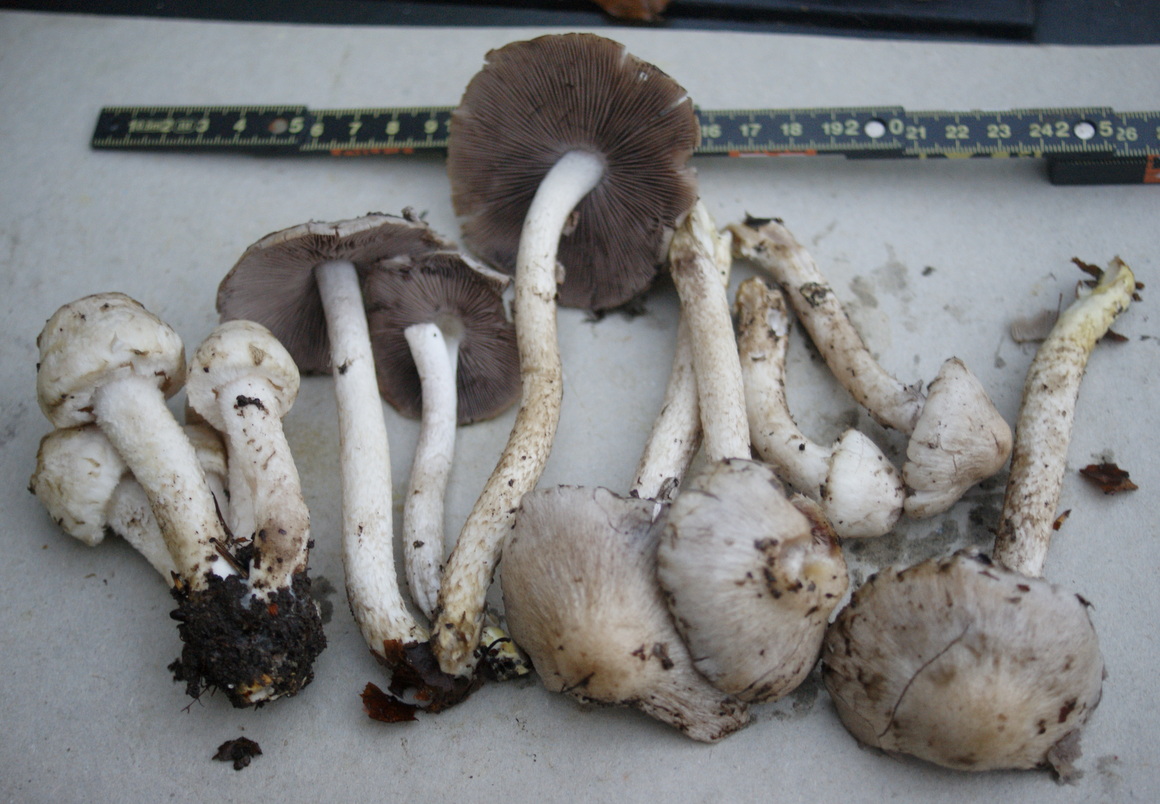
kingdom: Fungi
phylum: Basidiomycota
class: Agaricomycetes
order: Agaricales
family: Psathyrellaceae
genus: Psathyrella
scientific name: Psathyrella cotonea
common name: skællet mørkhat
